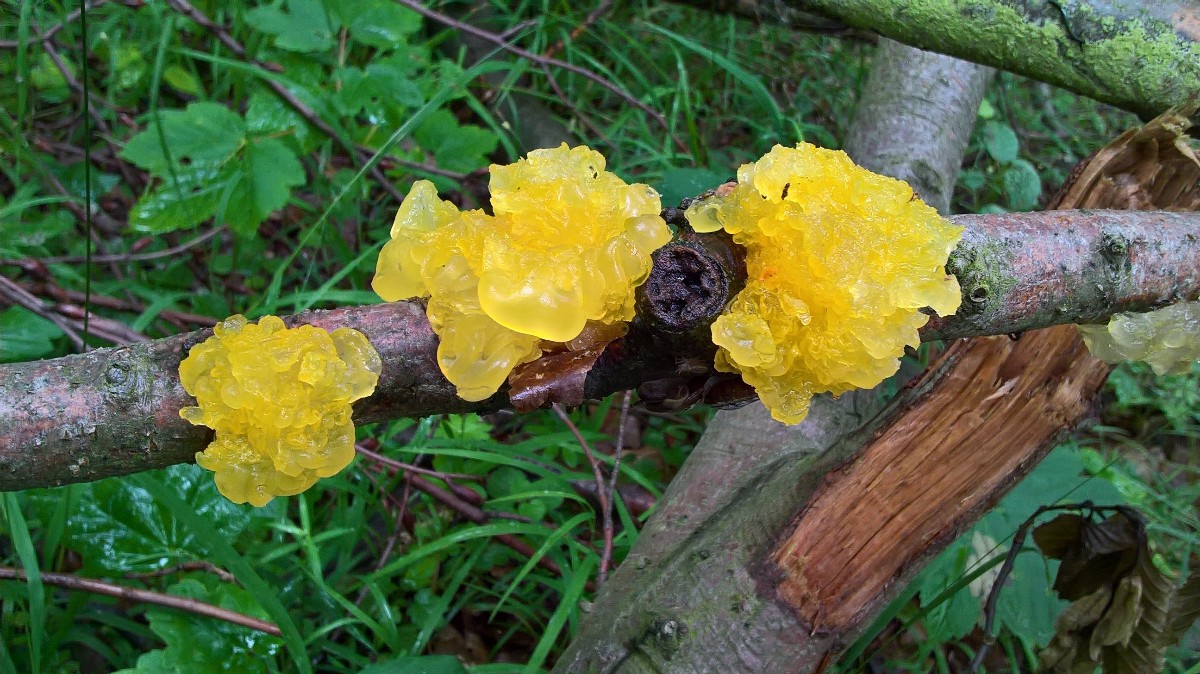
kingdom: Fungi
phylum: Basidiomycota
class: Tremellomycetes
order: Tremellales
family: Tremellaceae
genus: Tremella
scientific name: Tremella mesenterica
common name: gul bævresvamp
